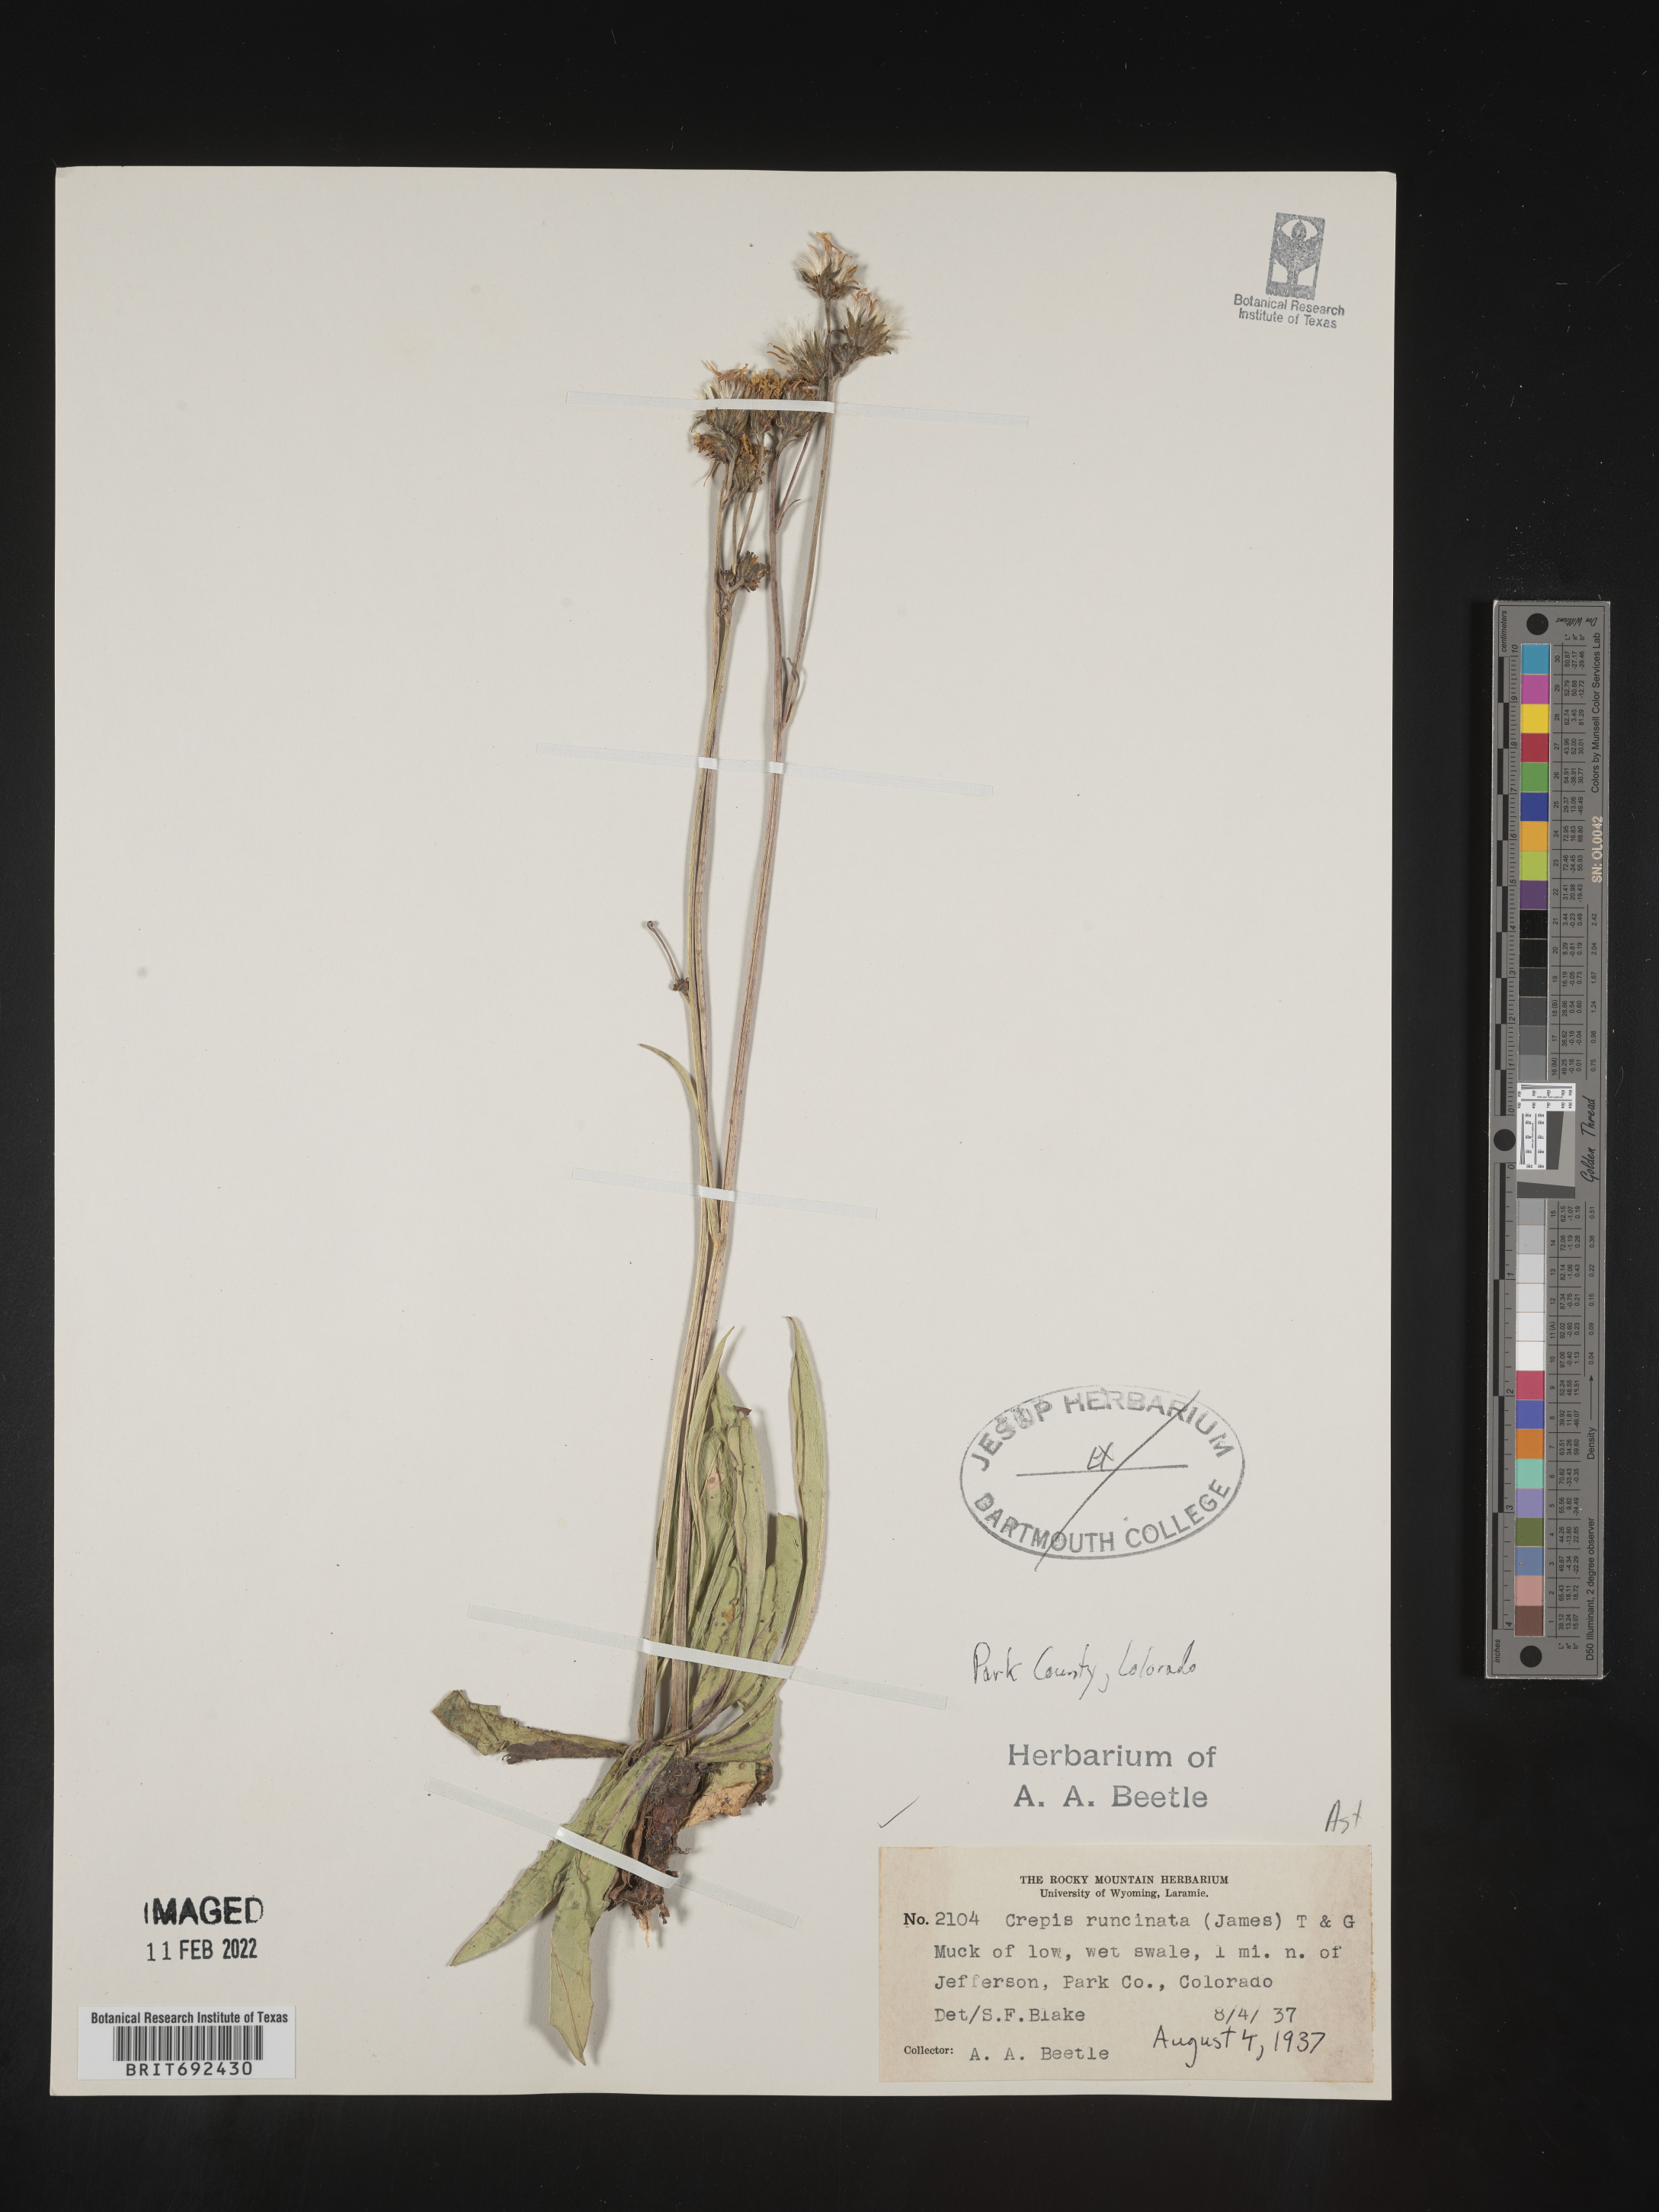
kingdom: Plantae
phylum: Tracheophyta
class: Magnoliopsida
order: Asterales
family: Asteraceae
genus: Crepis
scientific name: Crepis
